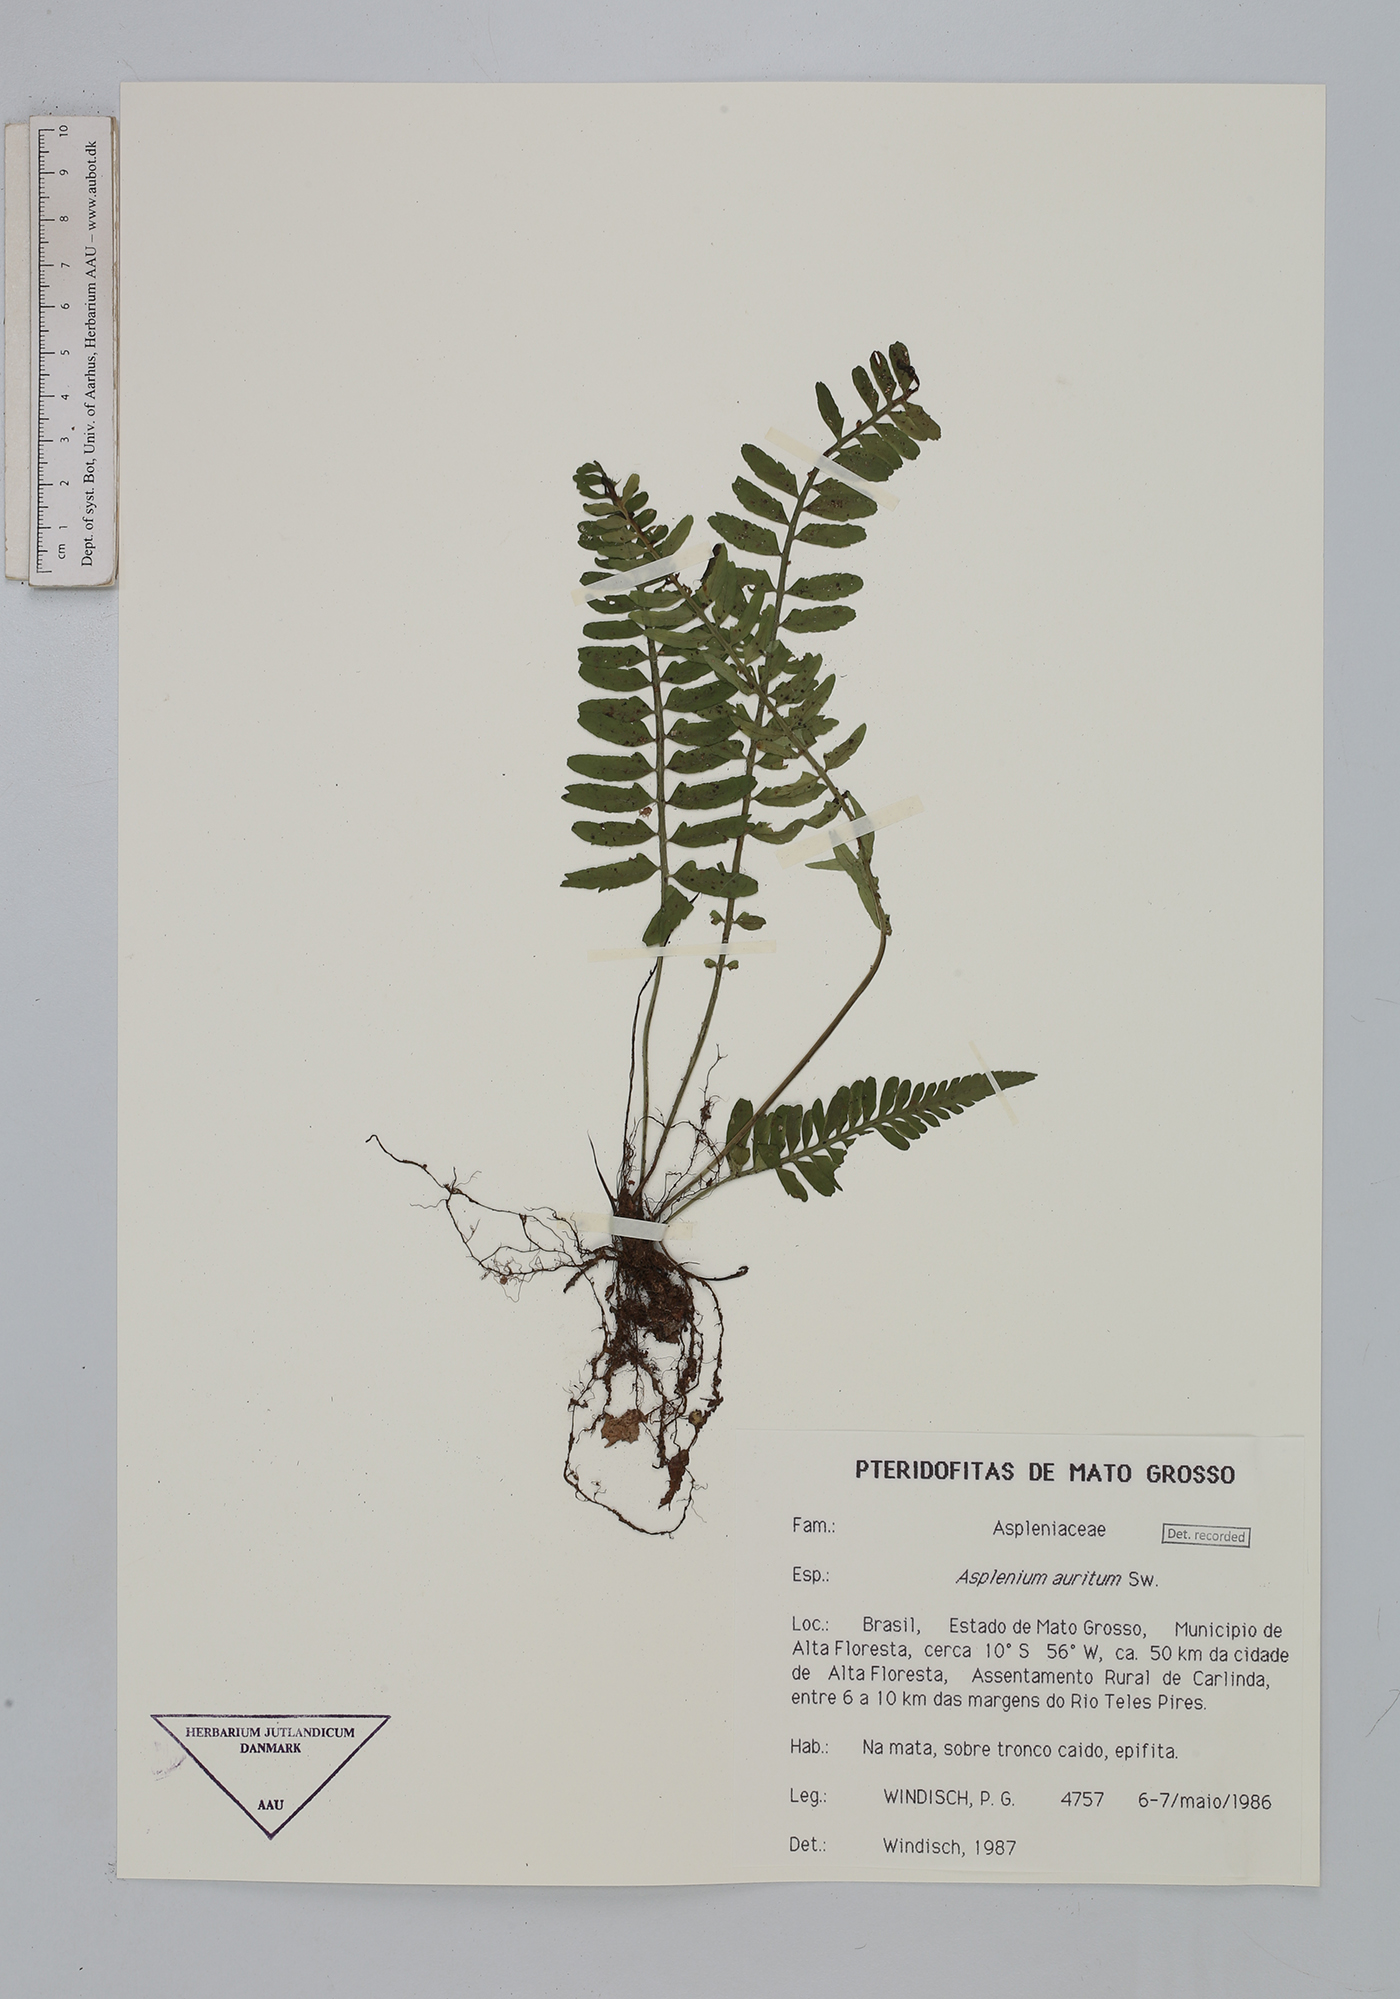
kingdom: Plantae
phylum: Tracheophyta
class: Polypodiopsida
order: Polypodiales
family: Aspleniaceae
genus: Asplenium
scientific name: Asplenium auritum
